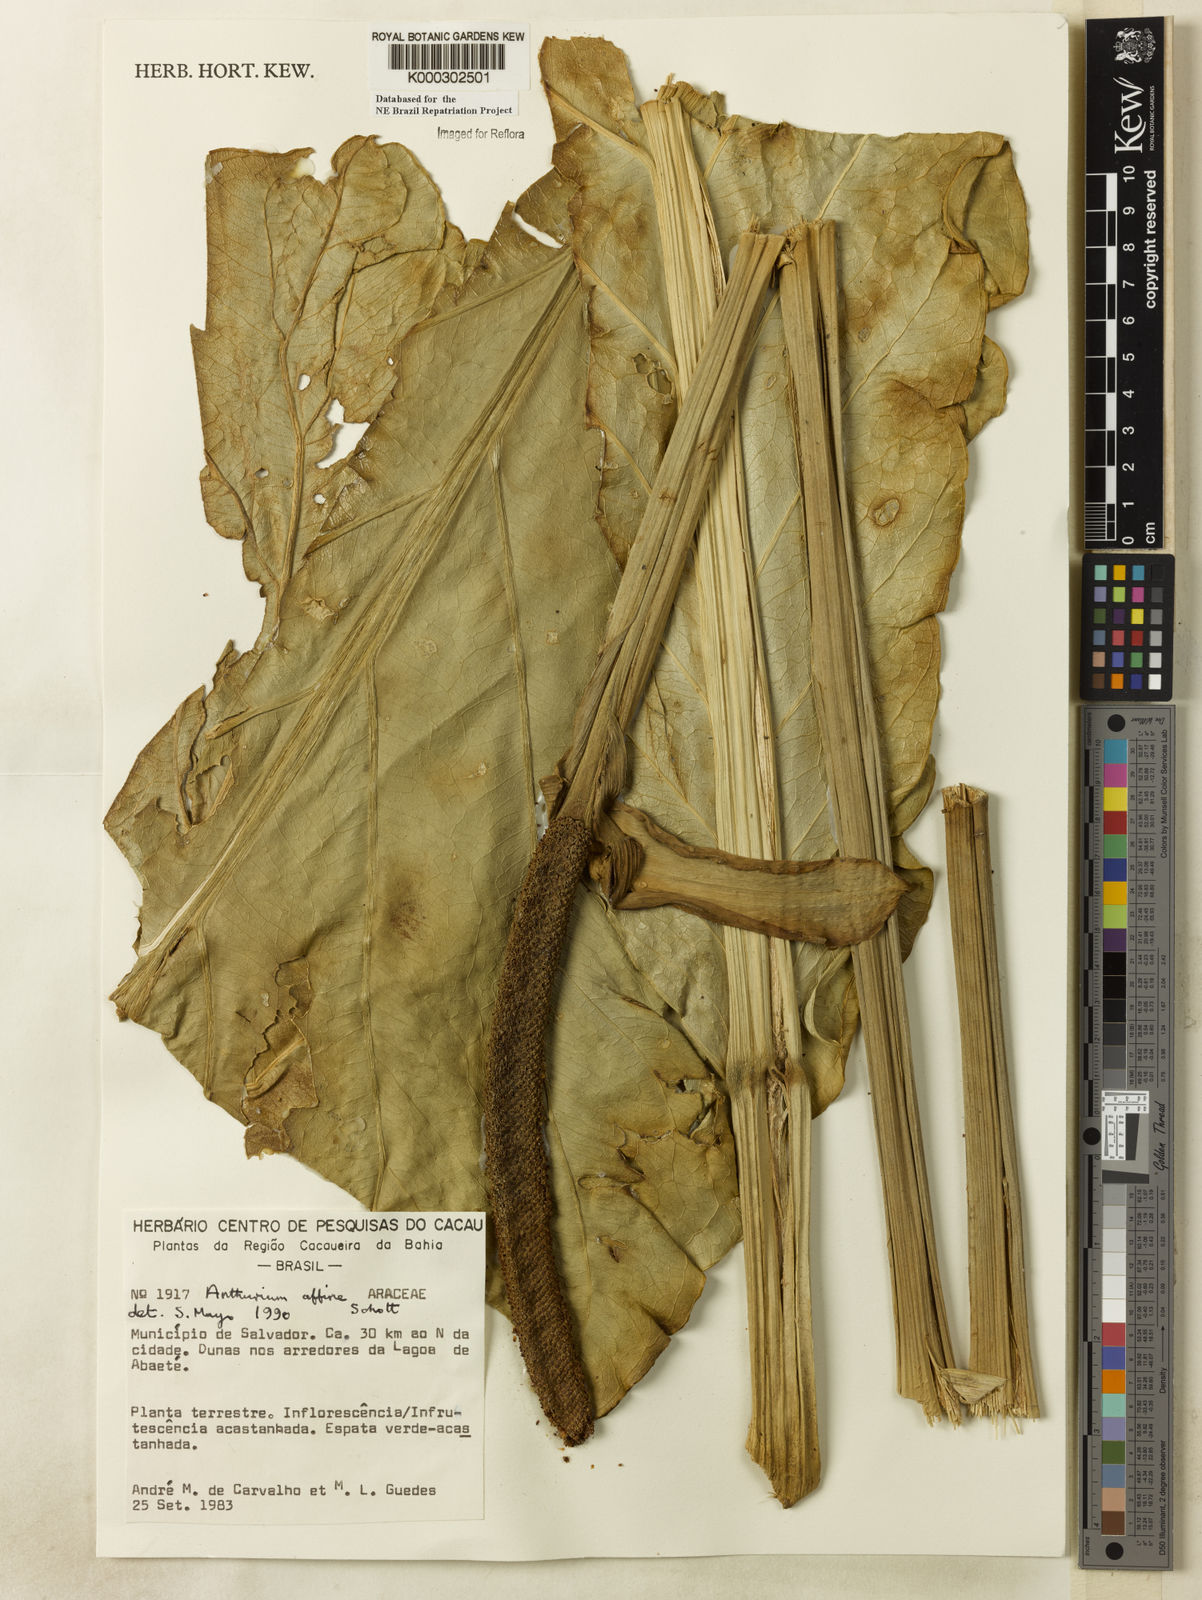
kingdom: Plantae
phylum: Tracheophyta
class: Liliopsida
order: Alismatales
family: Araceae
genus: Anthurium
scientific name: Anthurium affine
